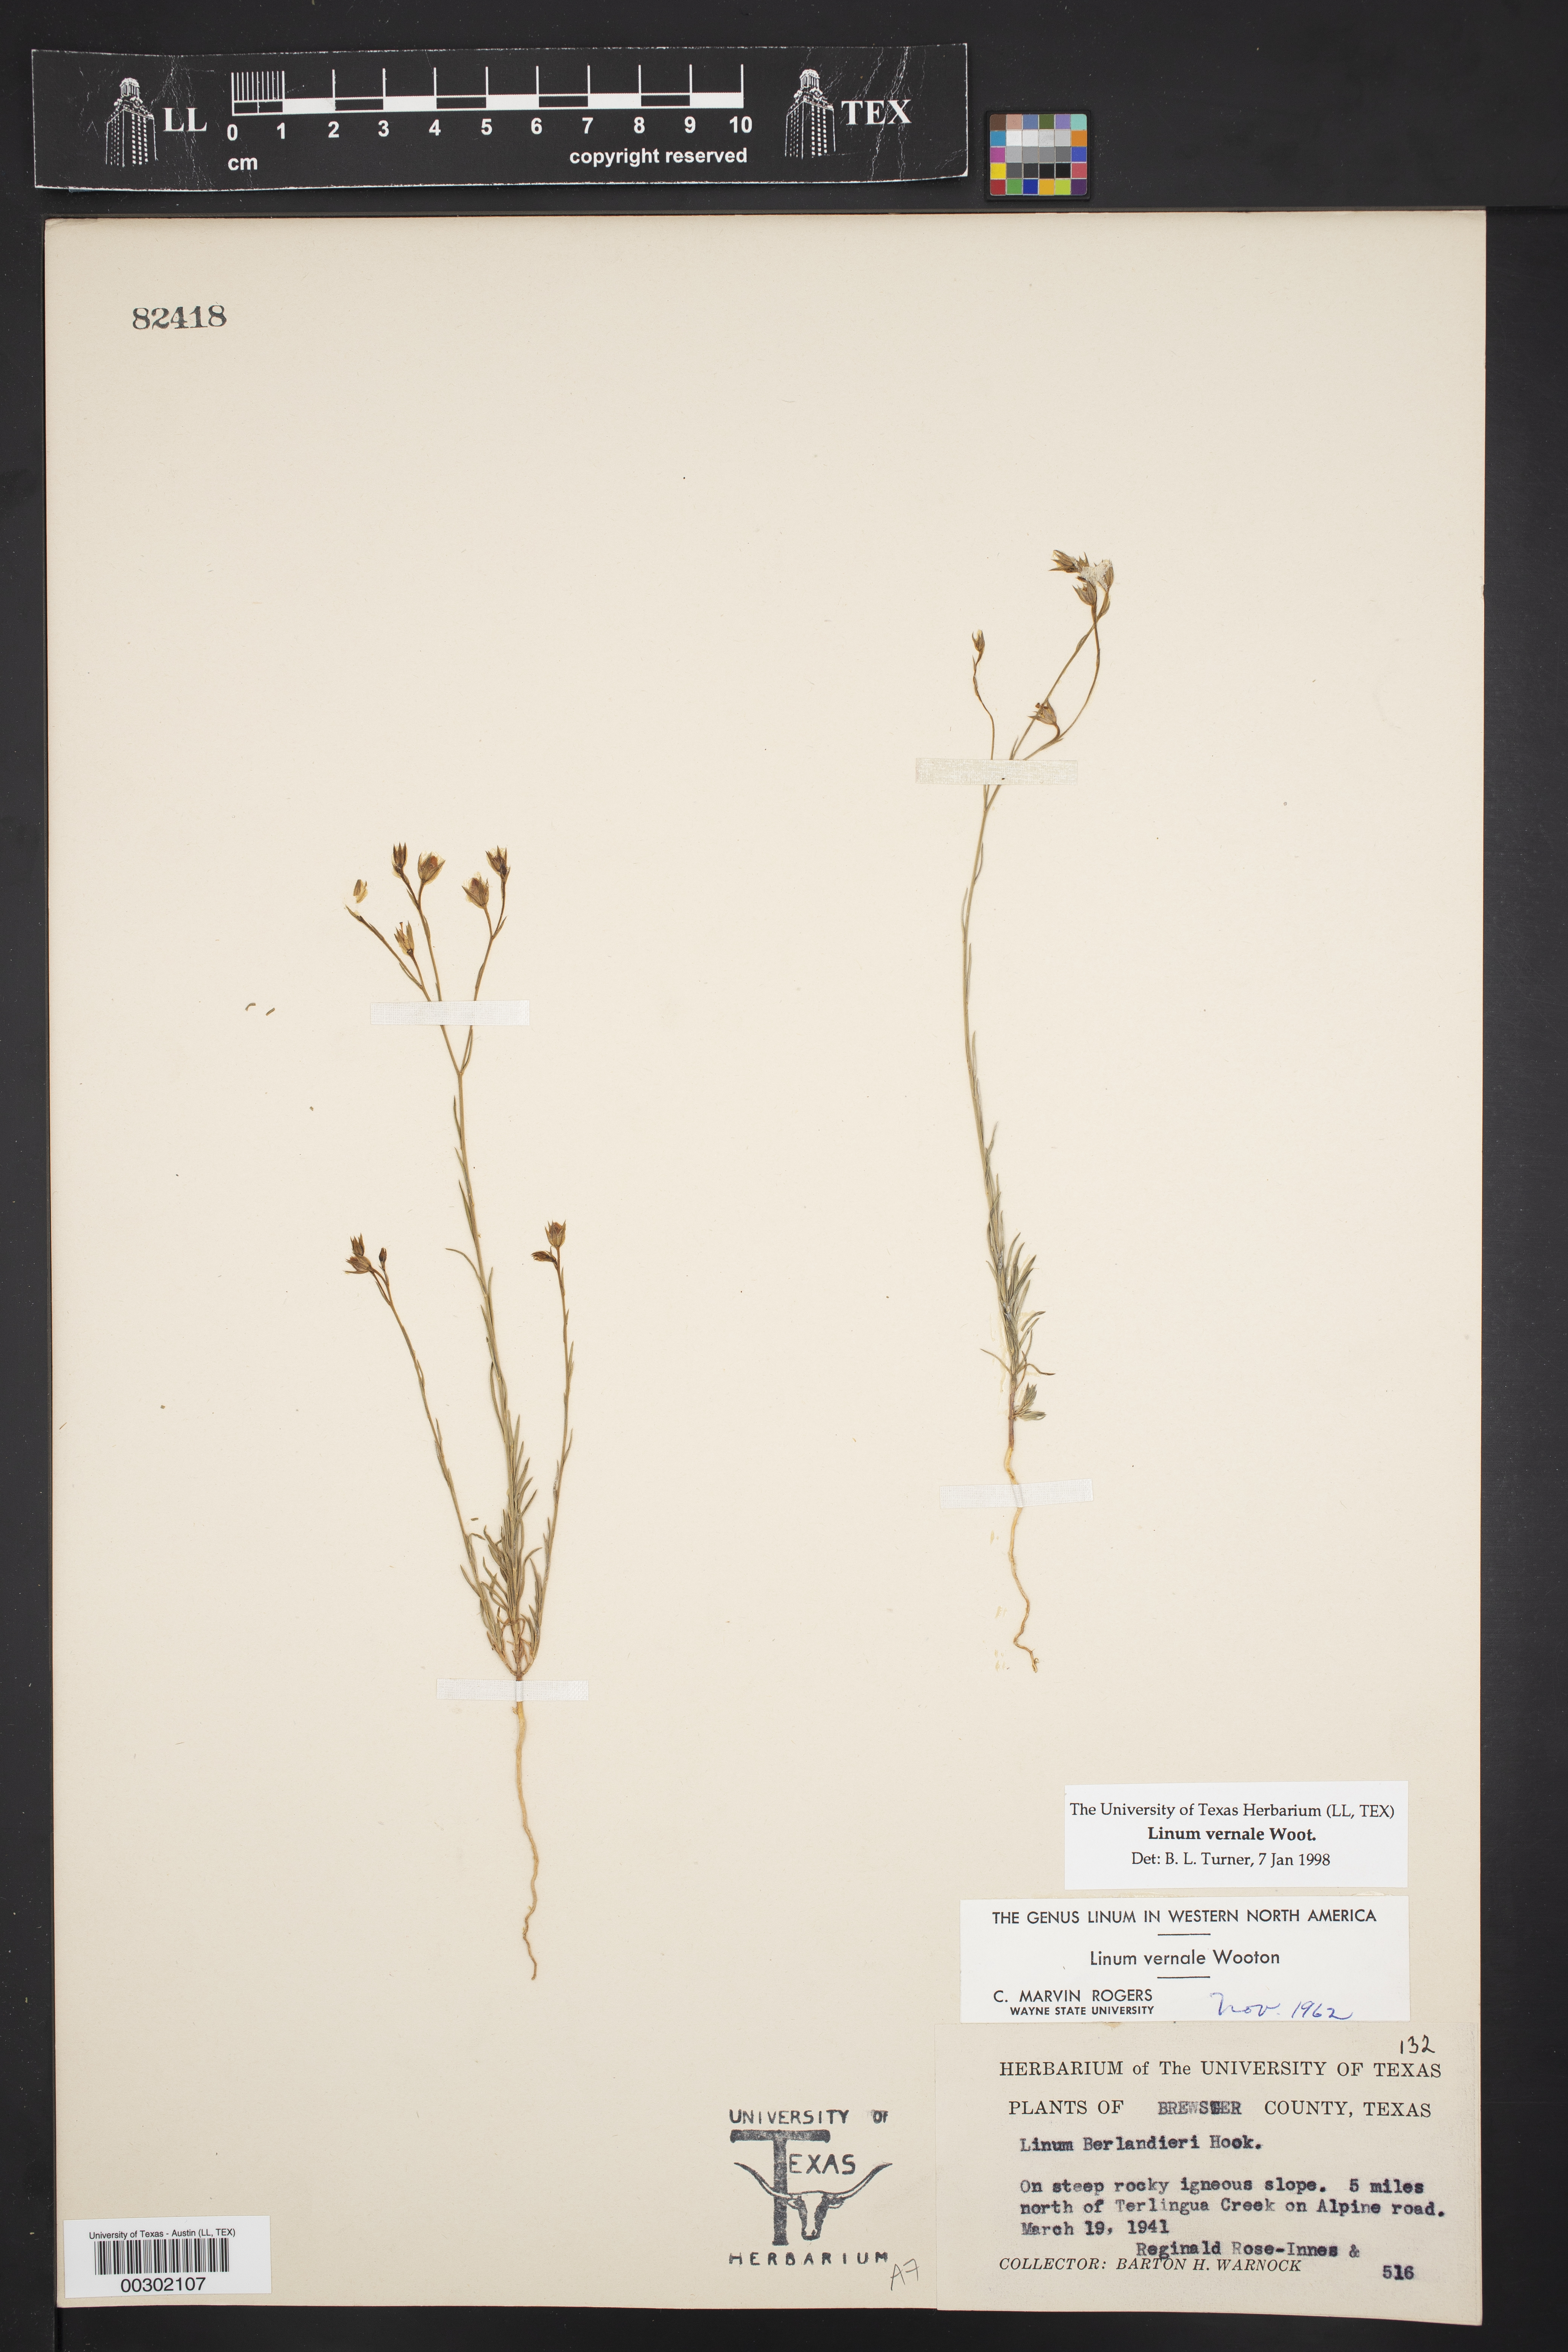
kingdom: Plantae
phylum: Tracheophyta
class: Magnoliopsida
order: Malpighiales
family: Linaceae
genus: Linum
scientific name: Linum vernale
